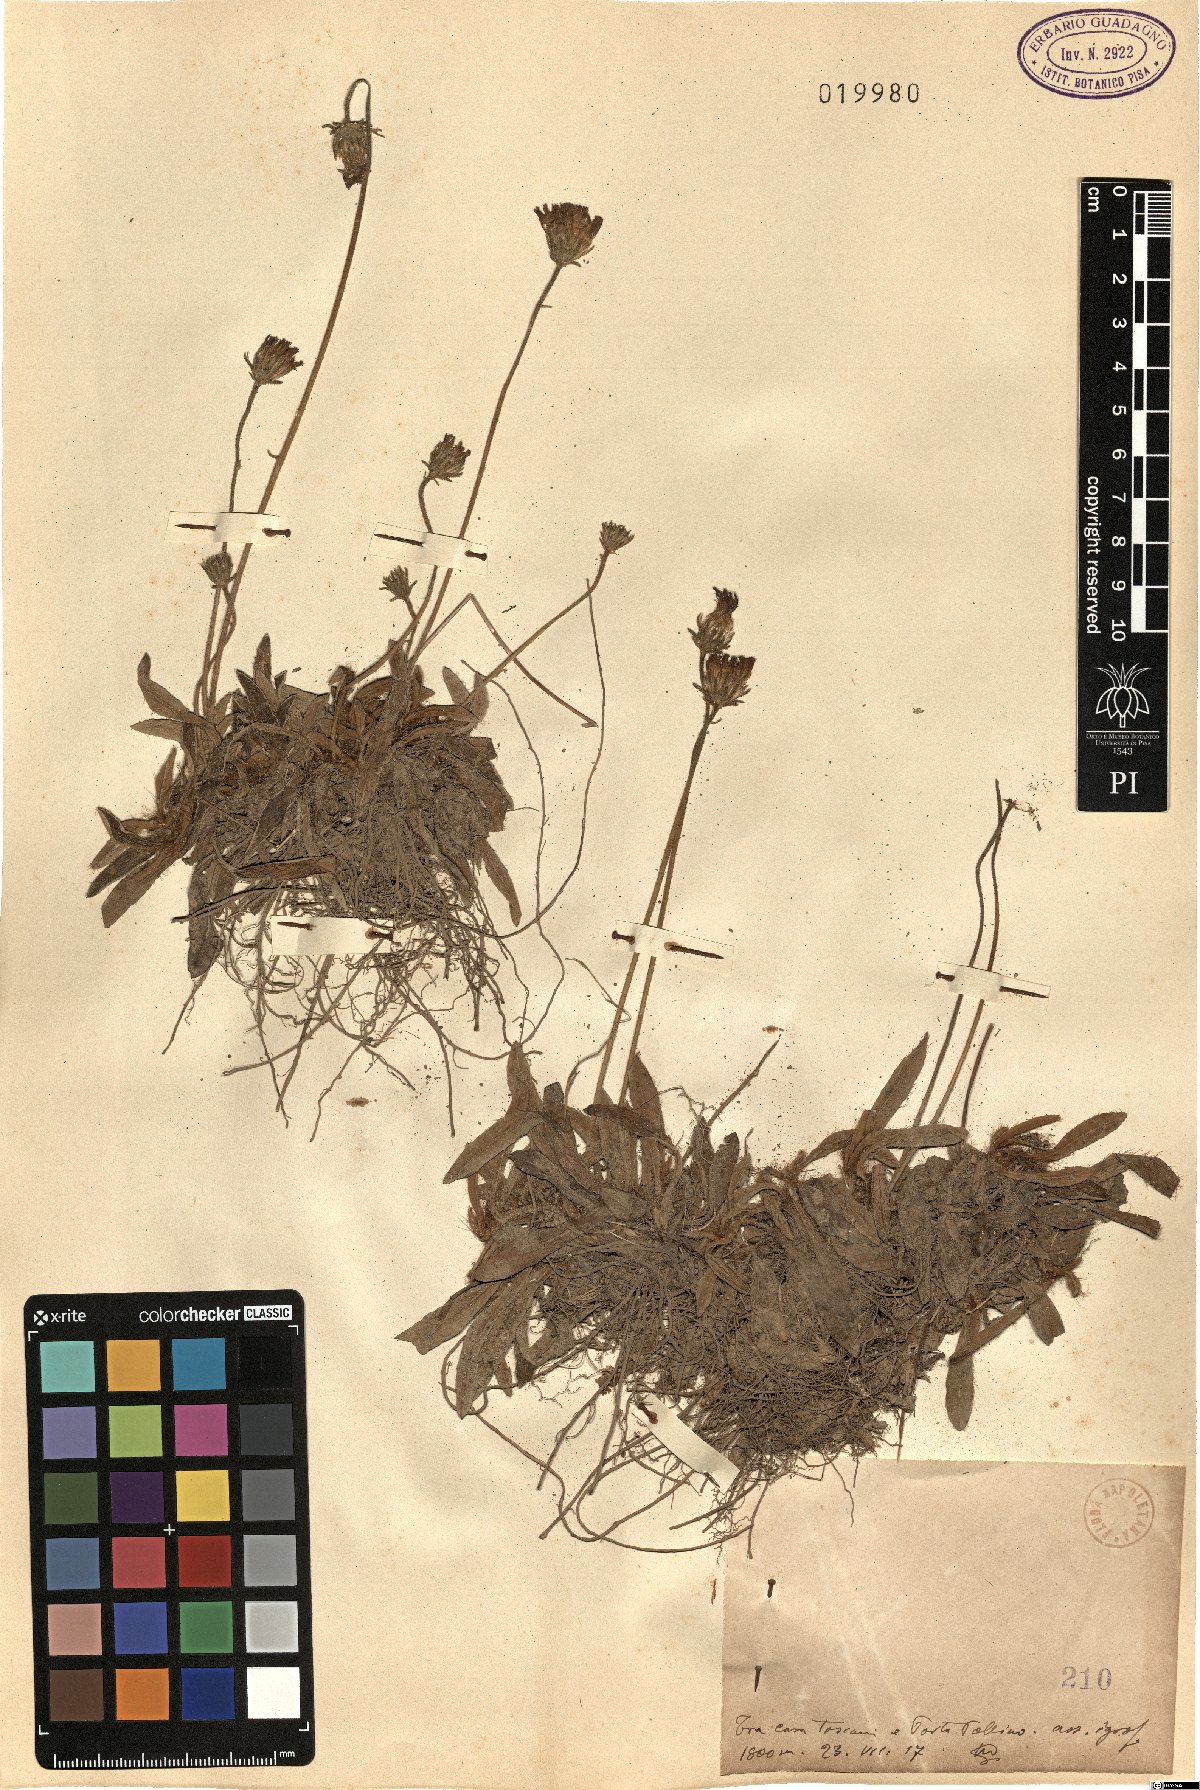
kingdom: Plantae
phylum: Tracheophyta
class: Magnoliopsida
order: Asterales
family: Asteraceae
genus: Hieracium
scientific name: Hieracium
